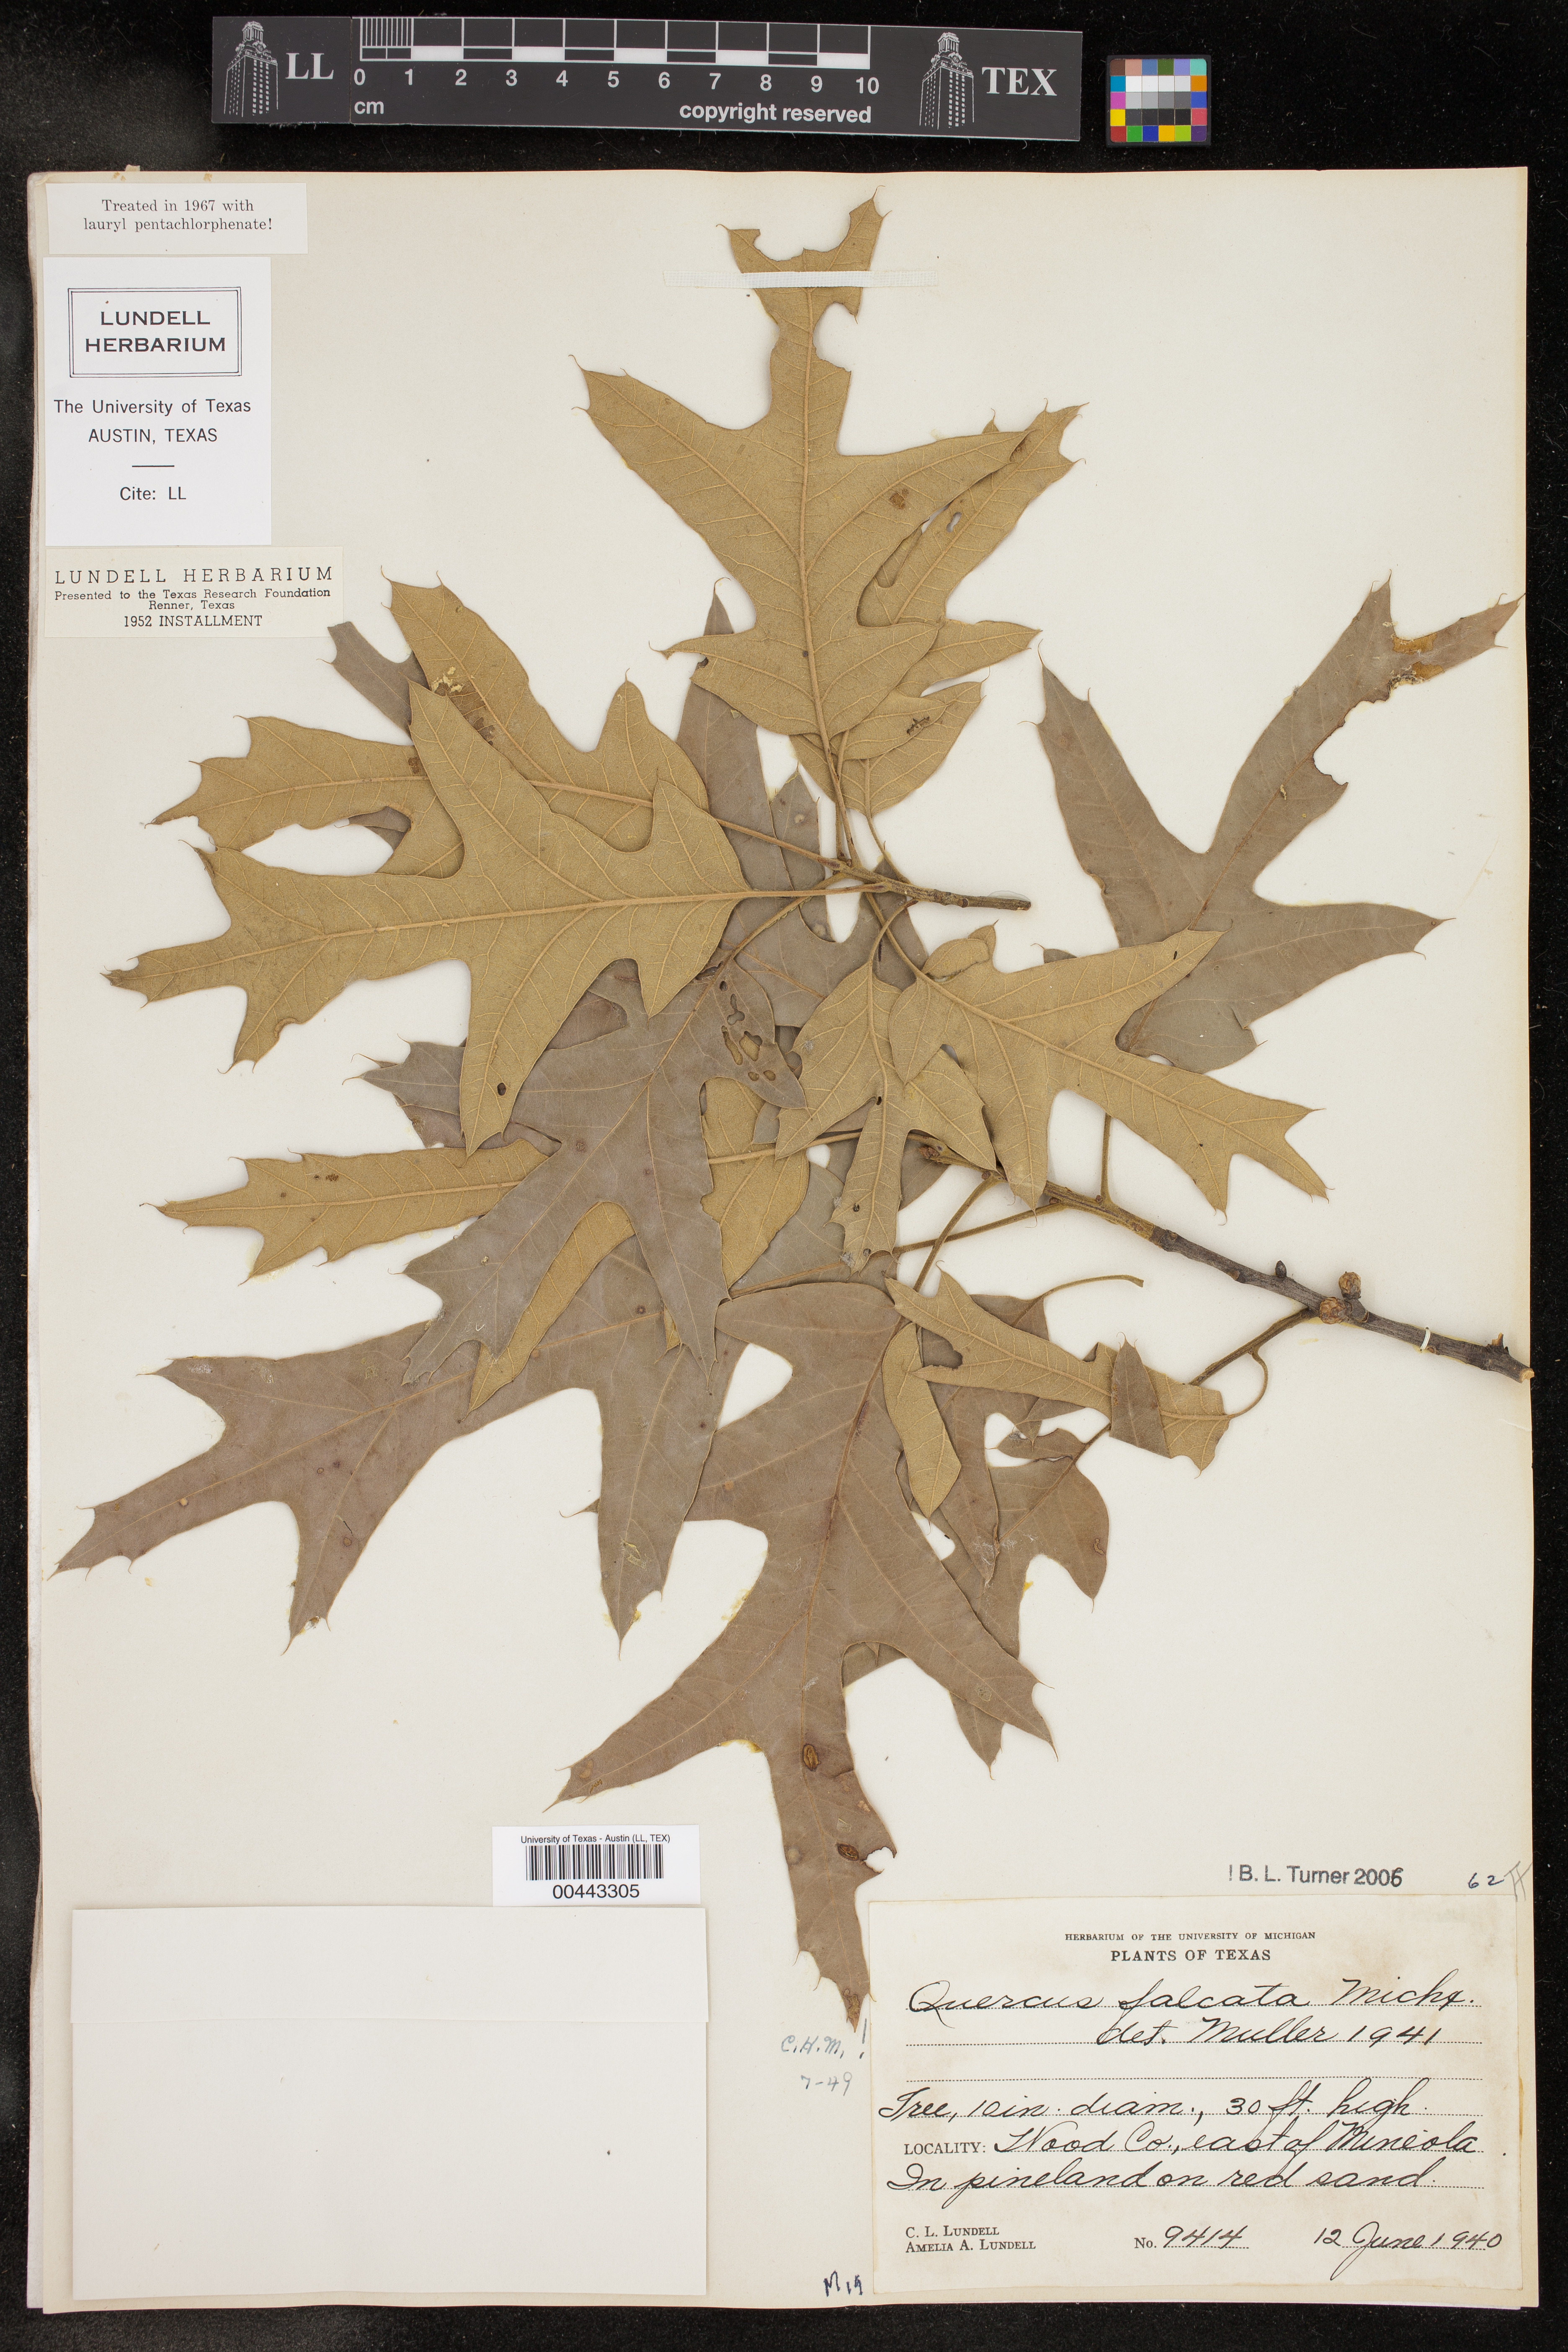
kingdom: Plantae
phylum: Tracheophyta
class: Magnoliopsida
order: Fagales
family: Fagaceae
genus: Quercus
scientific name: Quercus falcata
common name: Southern red oak
